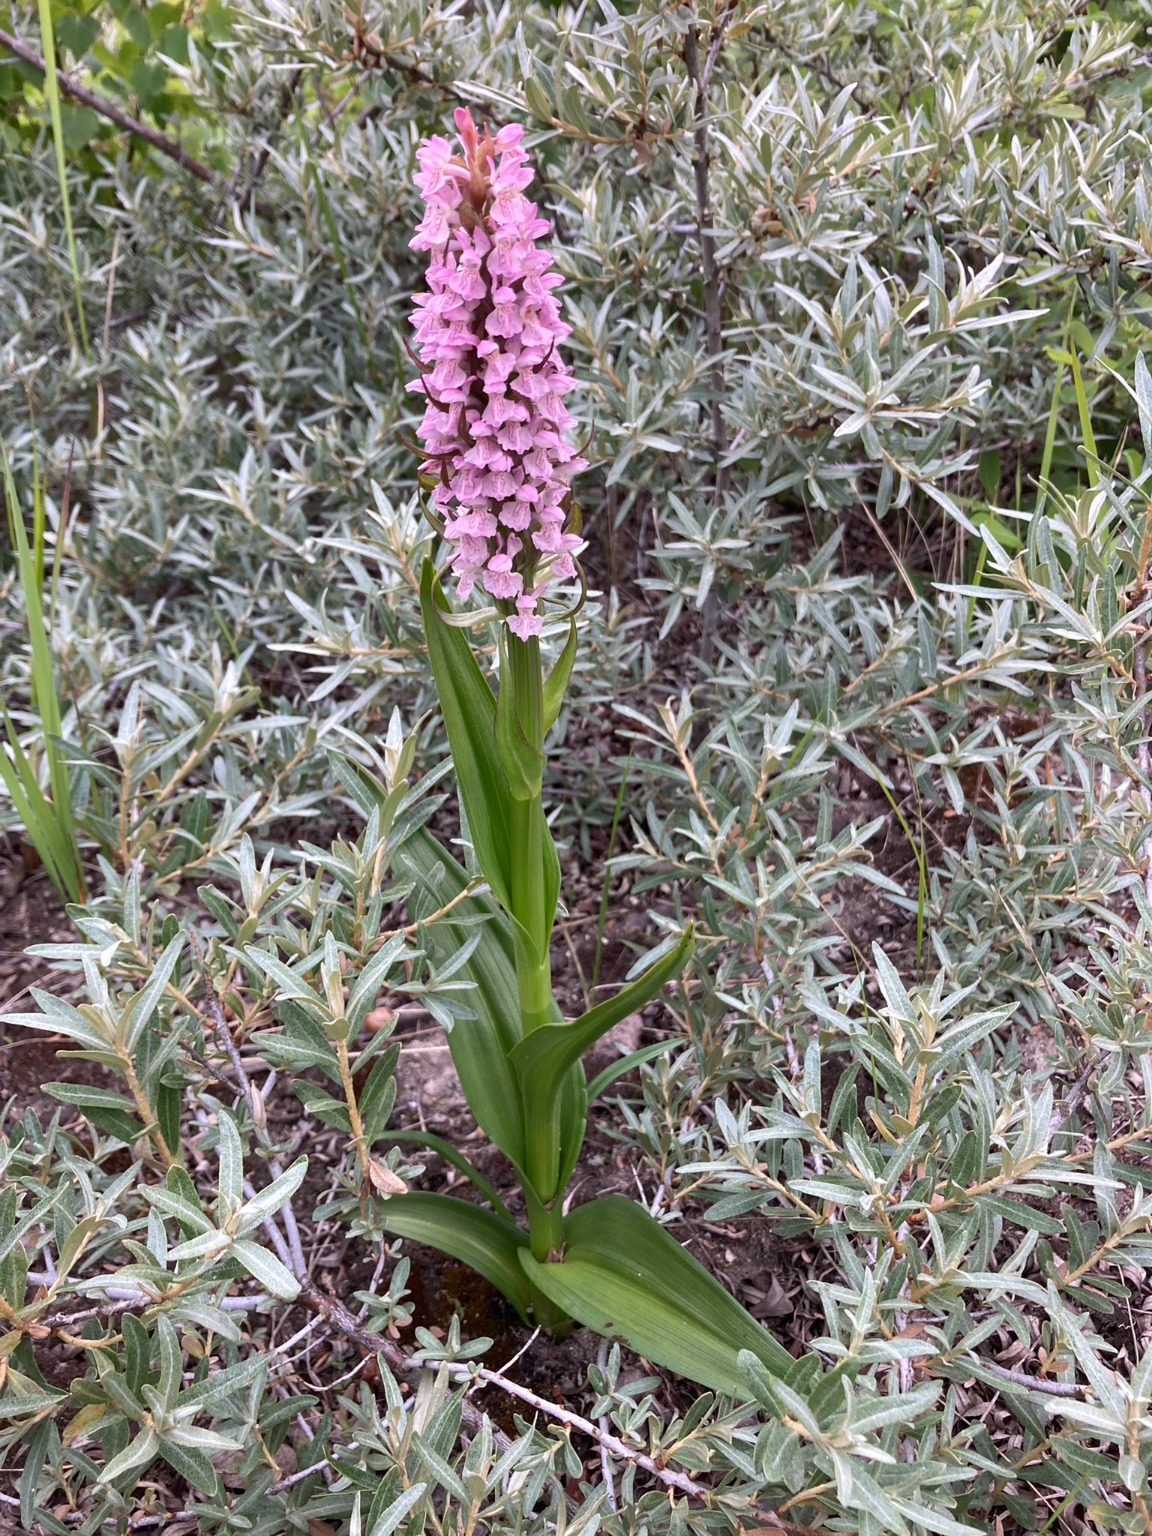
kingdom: Plantae
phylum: Tracheophyta
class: Liliopsida
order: Asparagales
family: Orchidaceae
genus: Dactylorhiza
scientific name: Dactylorhiza incarnata
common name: Kødfarvet gøgeurt
